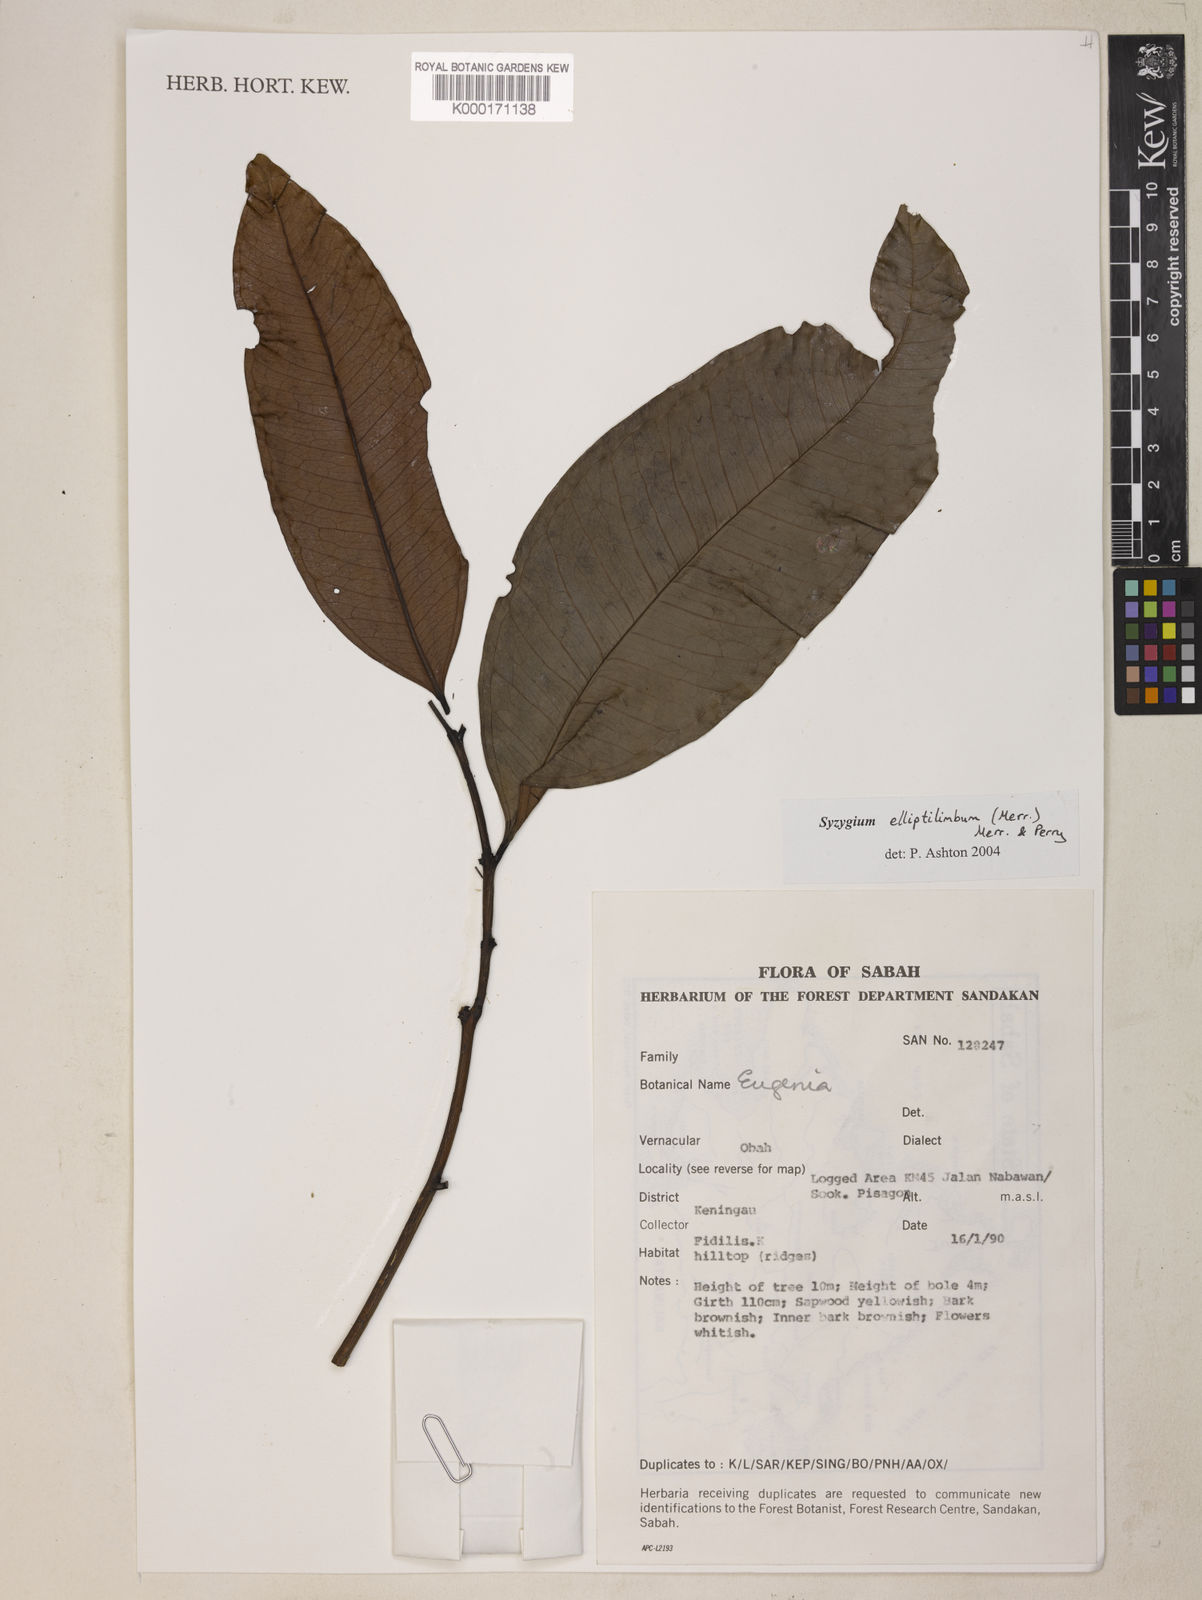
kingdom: Plantae
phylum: Tracheophyta
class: Magnoliopsida
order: Myrtales
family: Myrtaceae
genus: Syzygium
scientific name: Syzygium elliptilimbum
